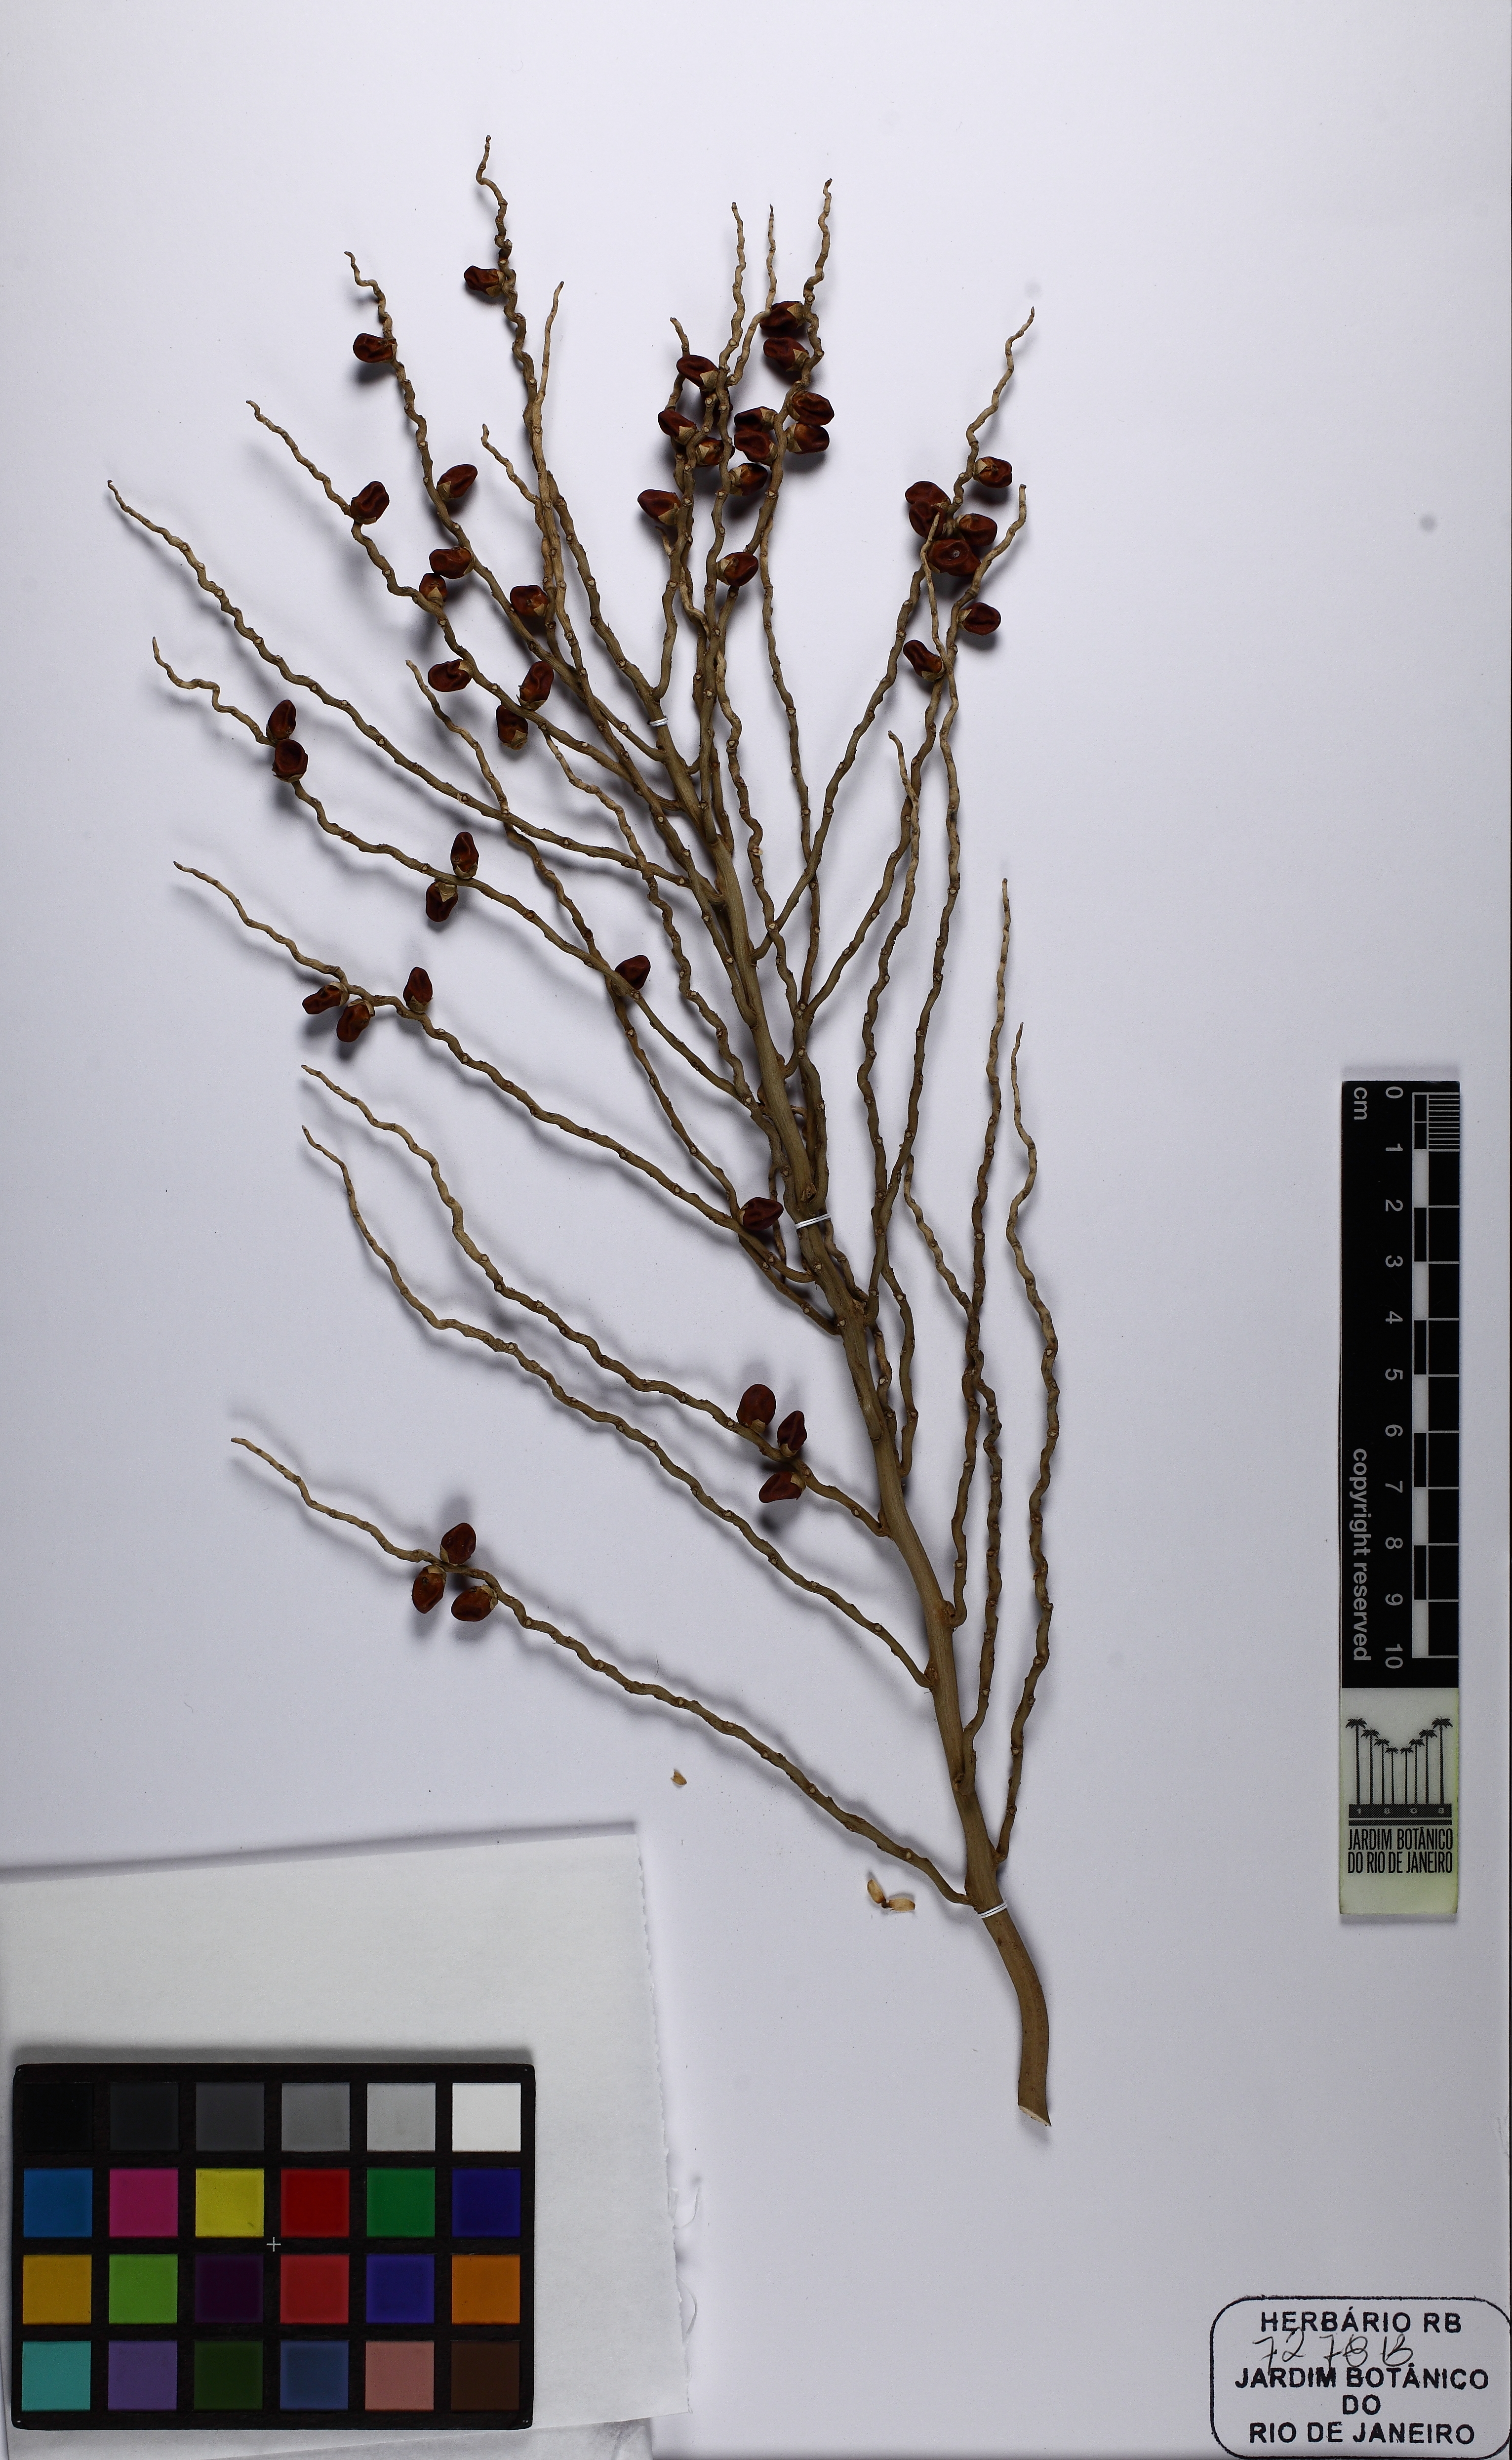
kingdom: Plantae
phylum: Tracheophyta
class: Liliopsida
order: Arecales
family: Arecaceae
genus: Roystonea
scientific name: Roystonea regia
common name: Florida royal palm
